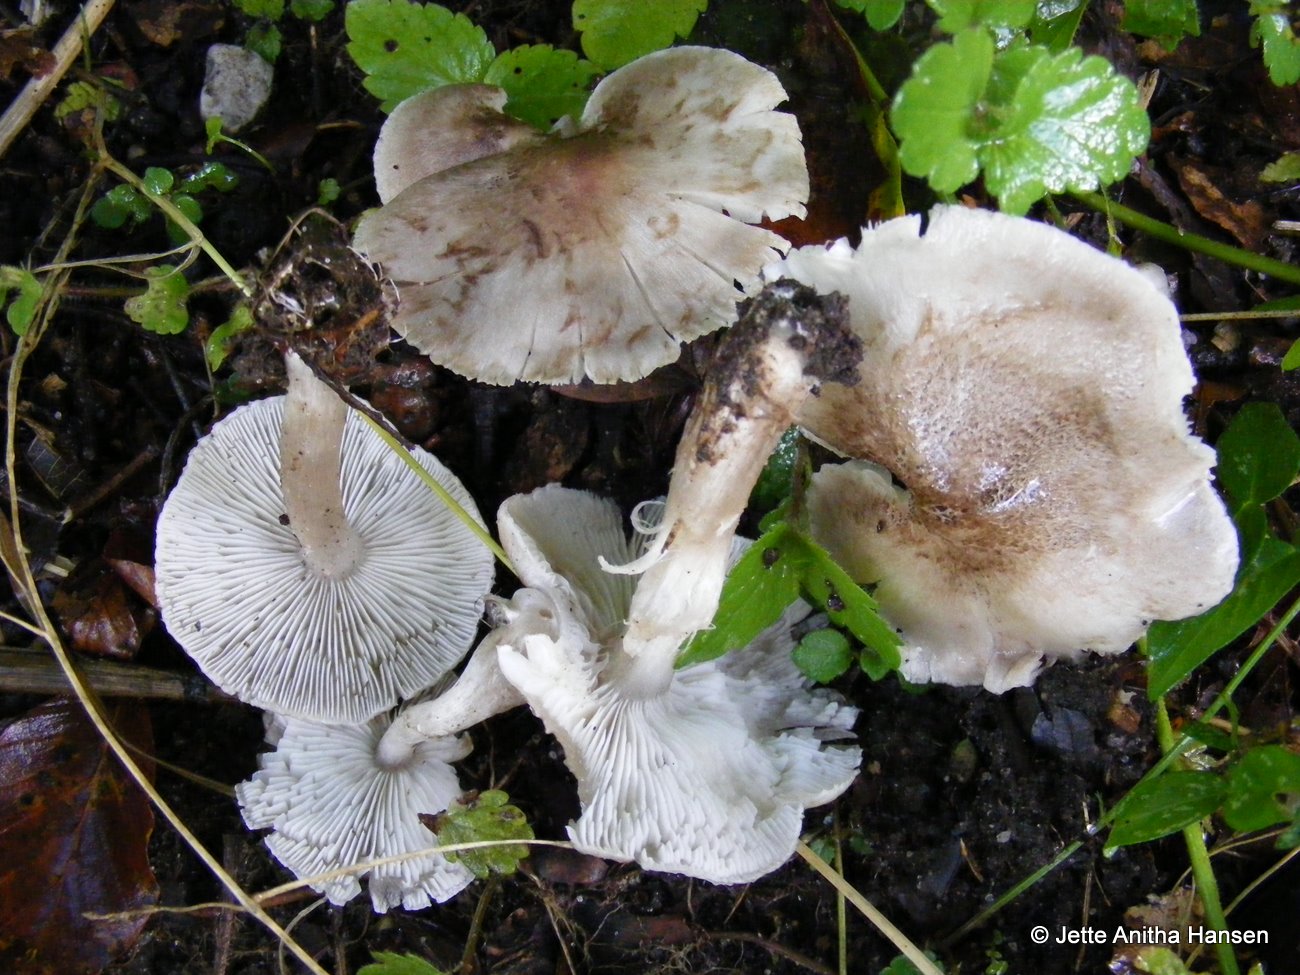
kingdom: Fungi
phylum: Basidiomycota
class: Agaricomycetes
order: Agaricales
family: Tricholomataceae
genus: Tricholoma
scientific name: Tricholoma scalpturatum
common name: gulplettet ridderhat
